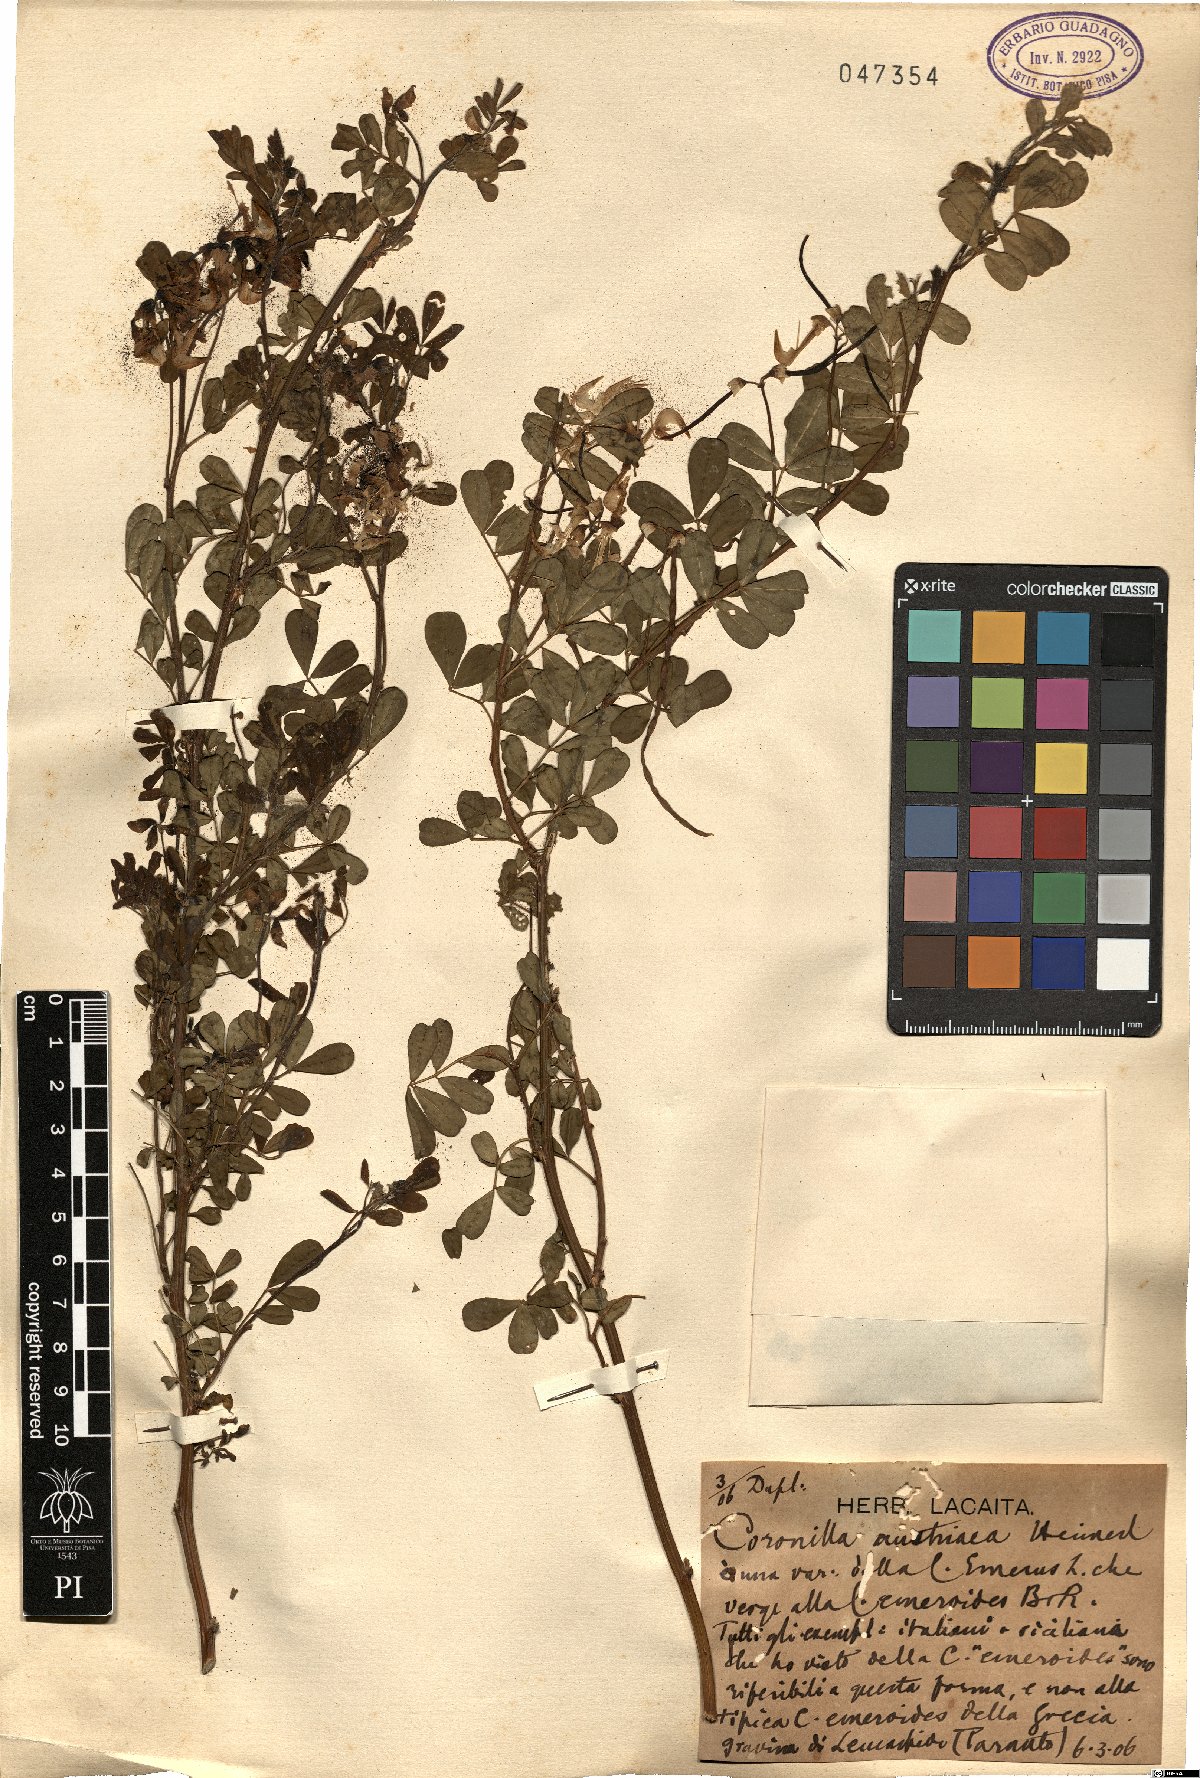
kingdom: Plantae
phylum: Tracheophyta
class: Magnoliopsida
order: Fabales
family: Fabaceae
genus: Hippocrepis
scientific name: Hippocrepis emerus
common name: Scorpion senna
